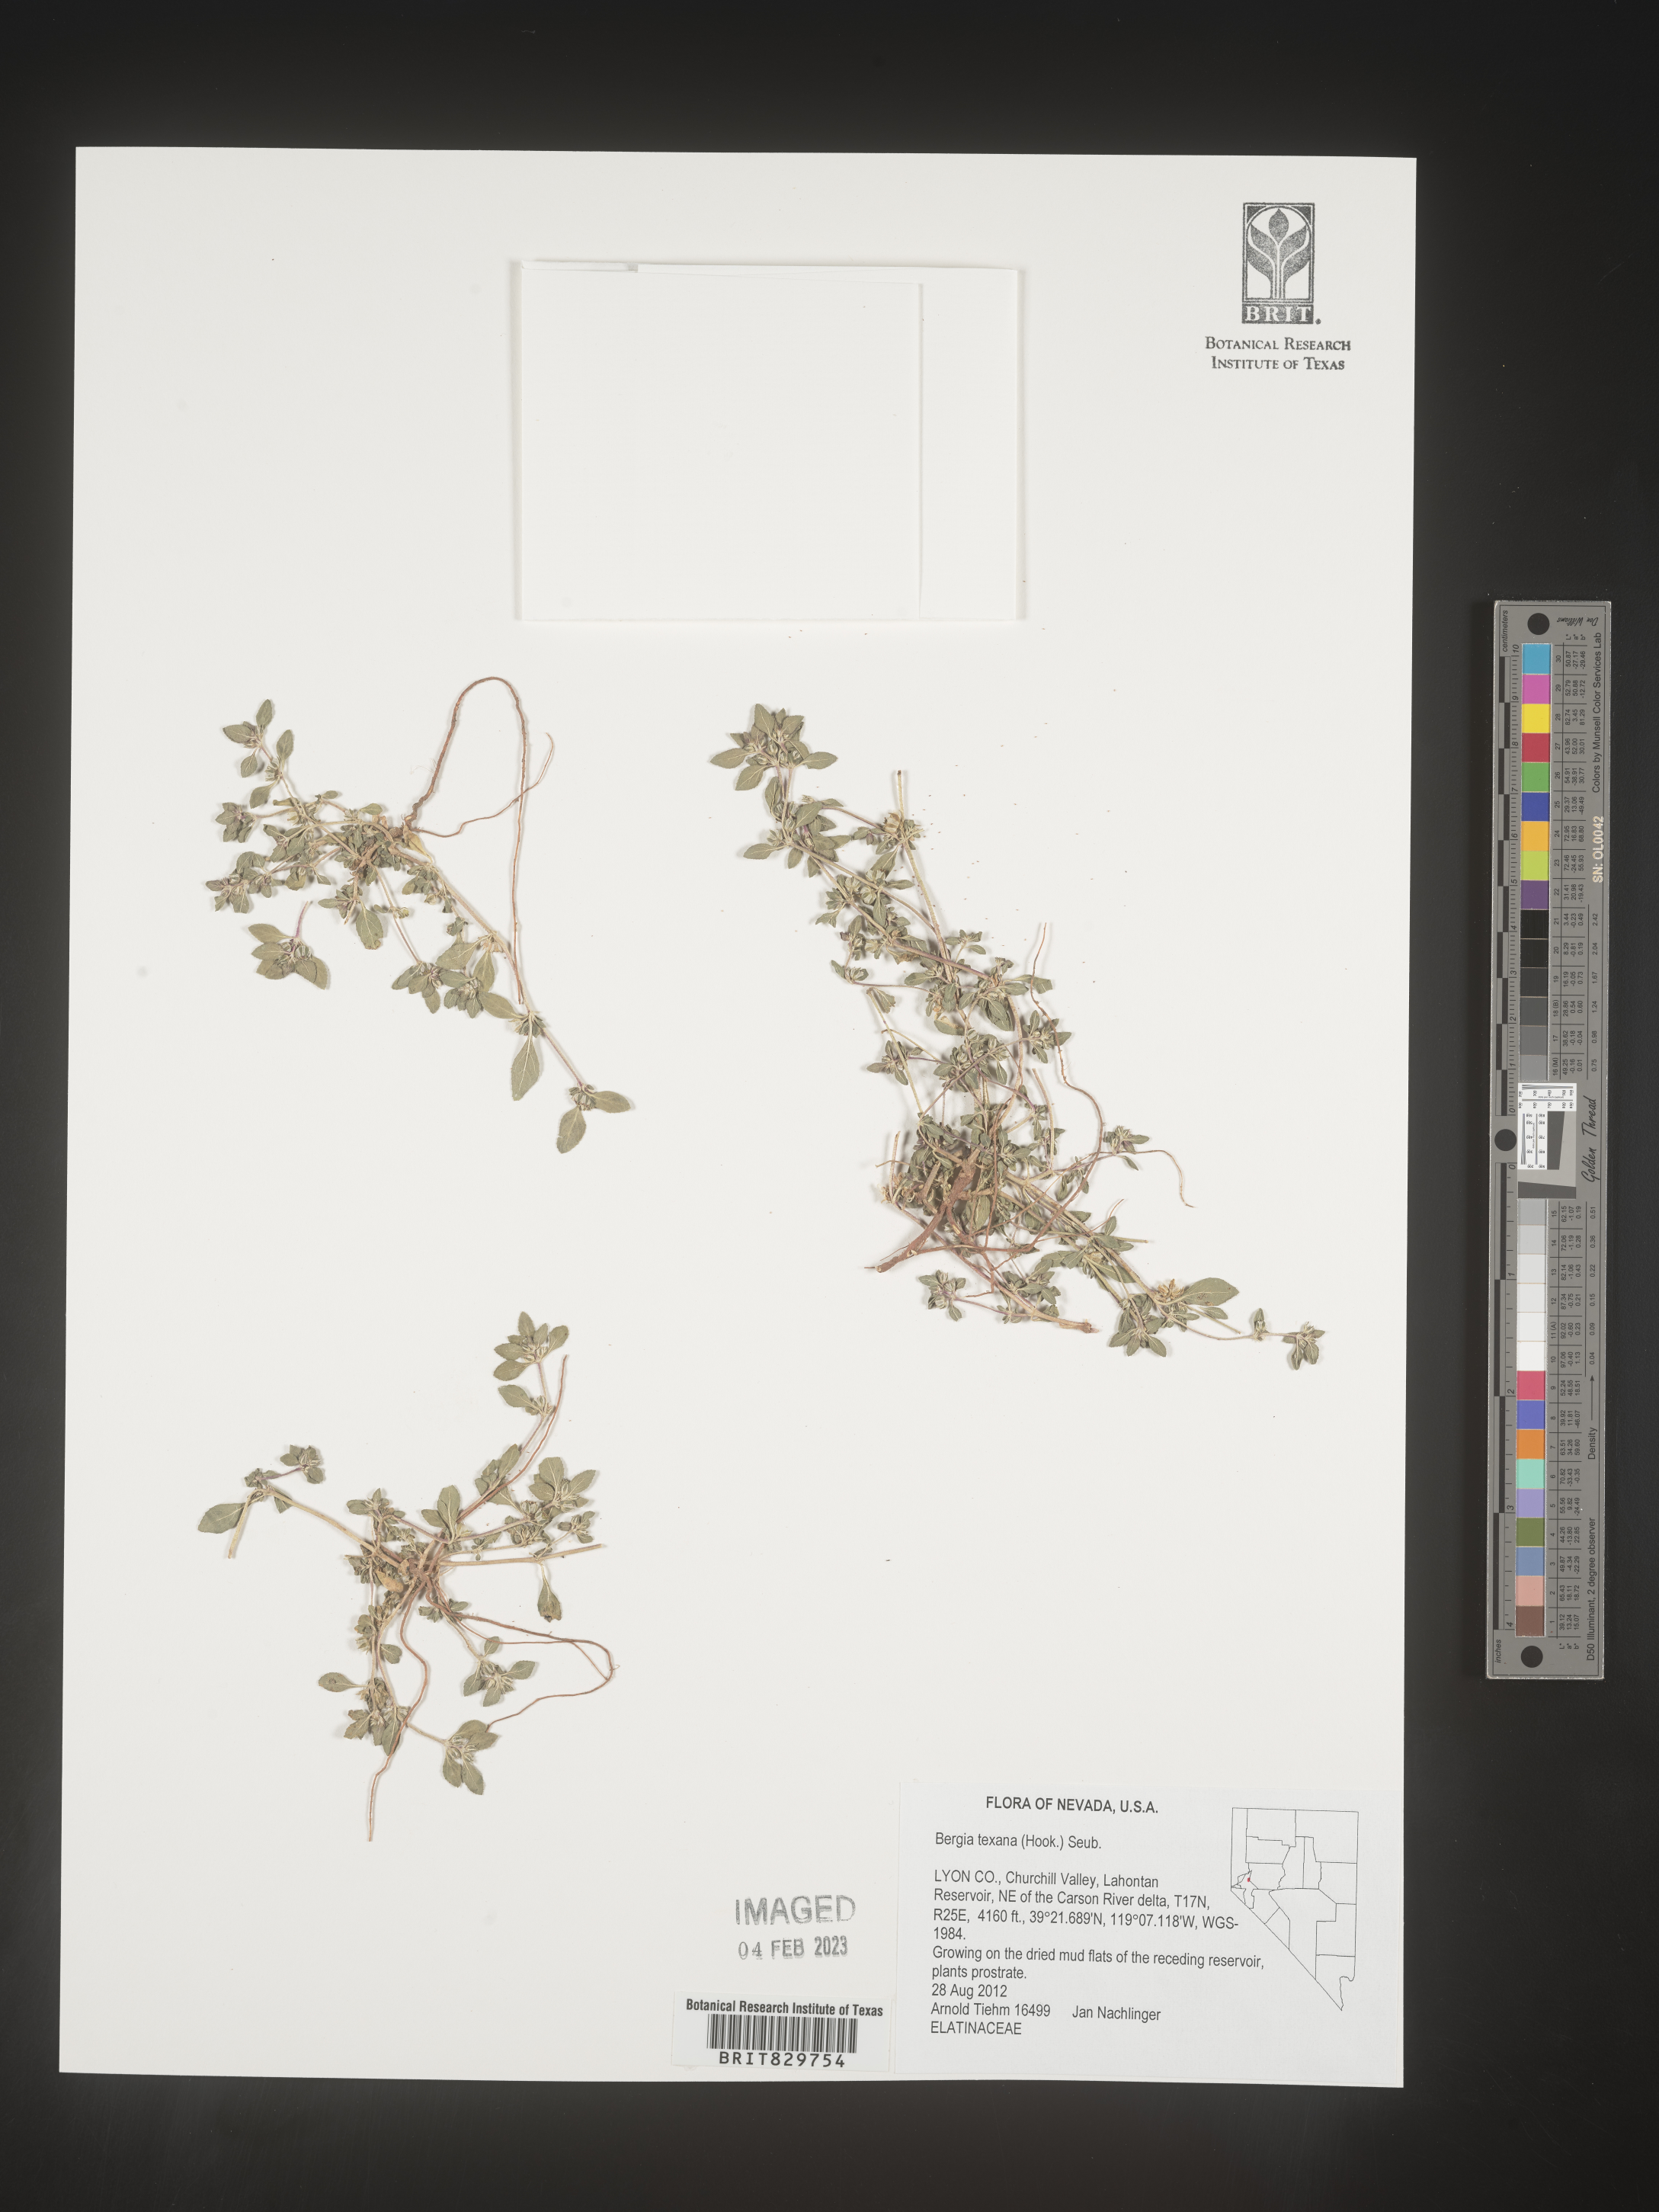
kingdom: Plantae
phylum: Tracheophyta
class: Magnoliopsida
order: Malpighiales
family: Elatinaceae
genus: Bergia
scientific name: Bergia texana
